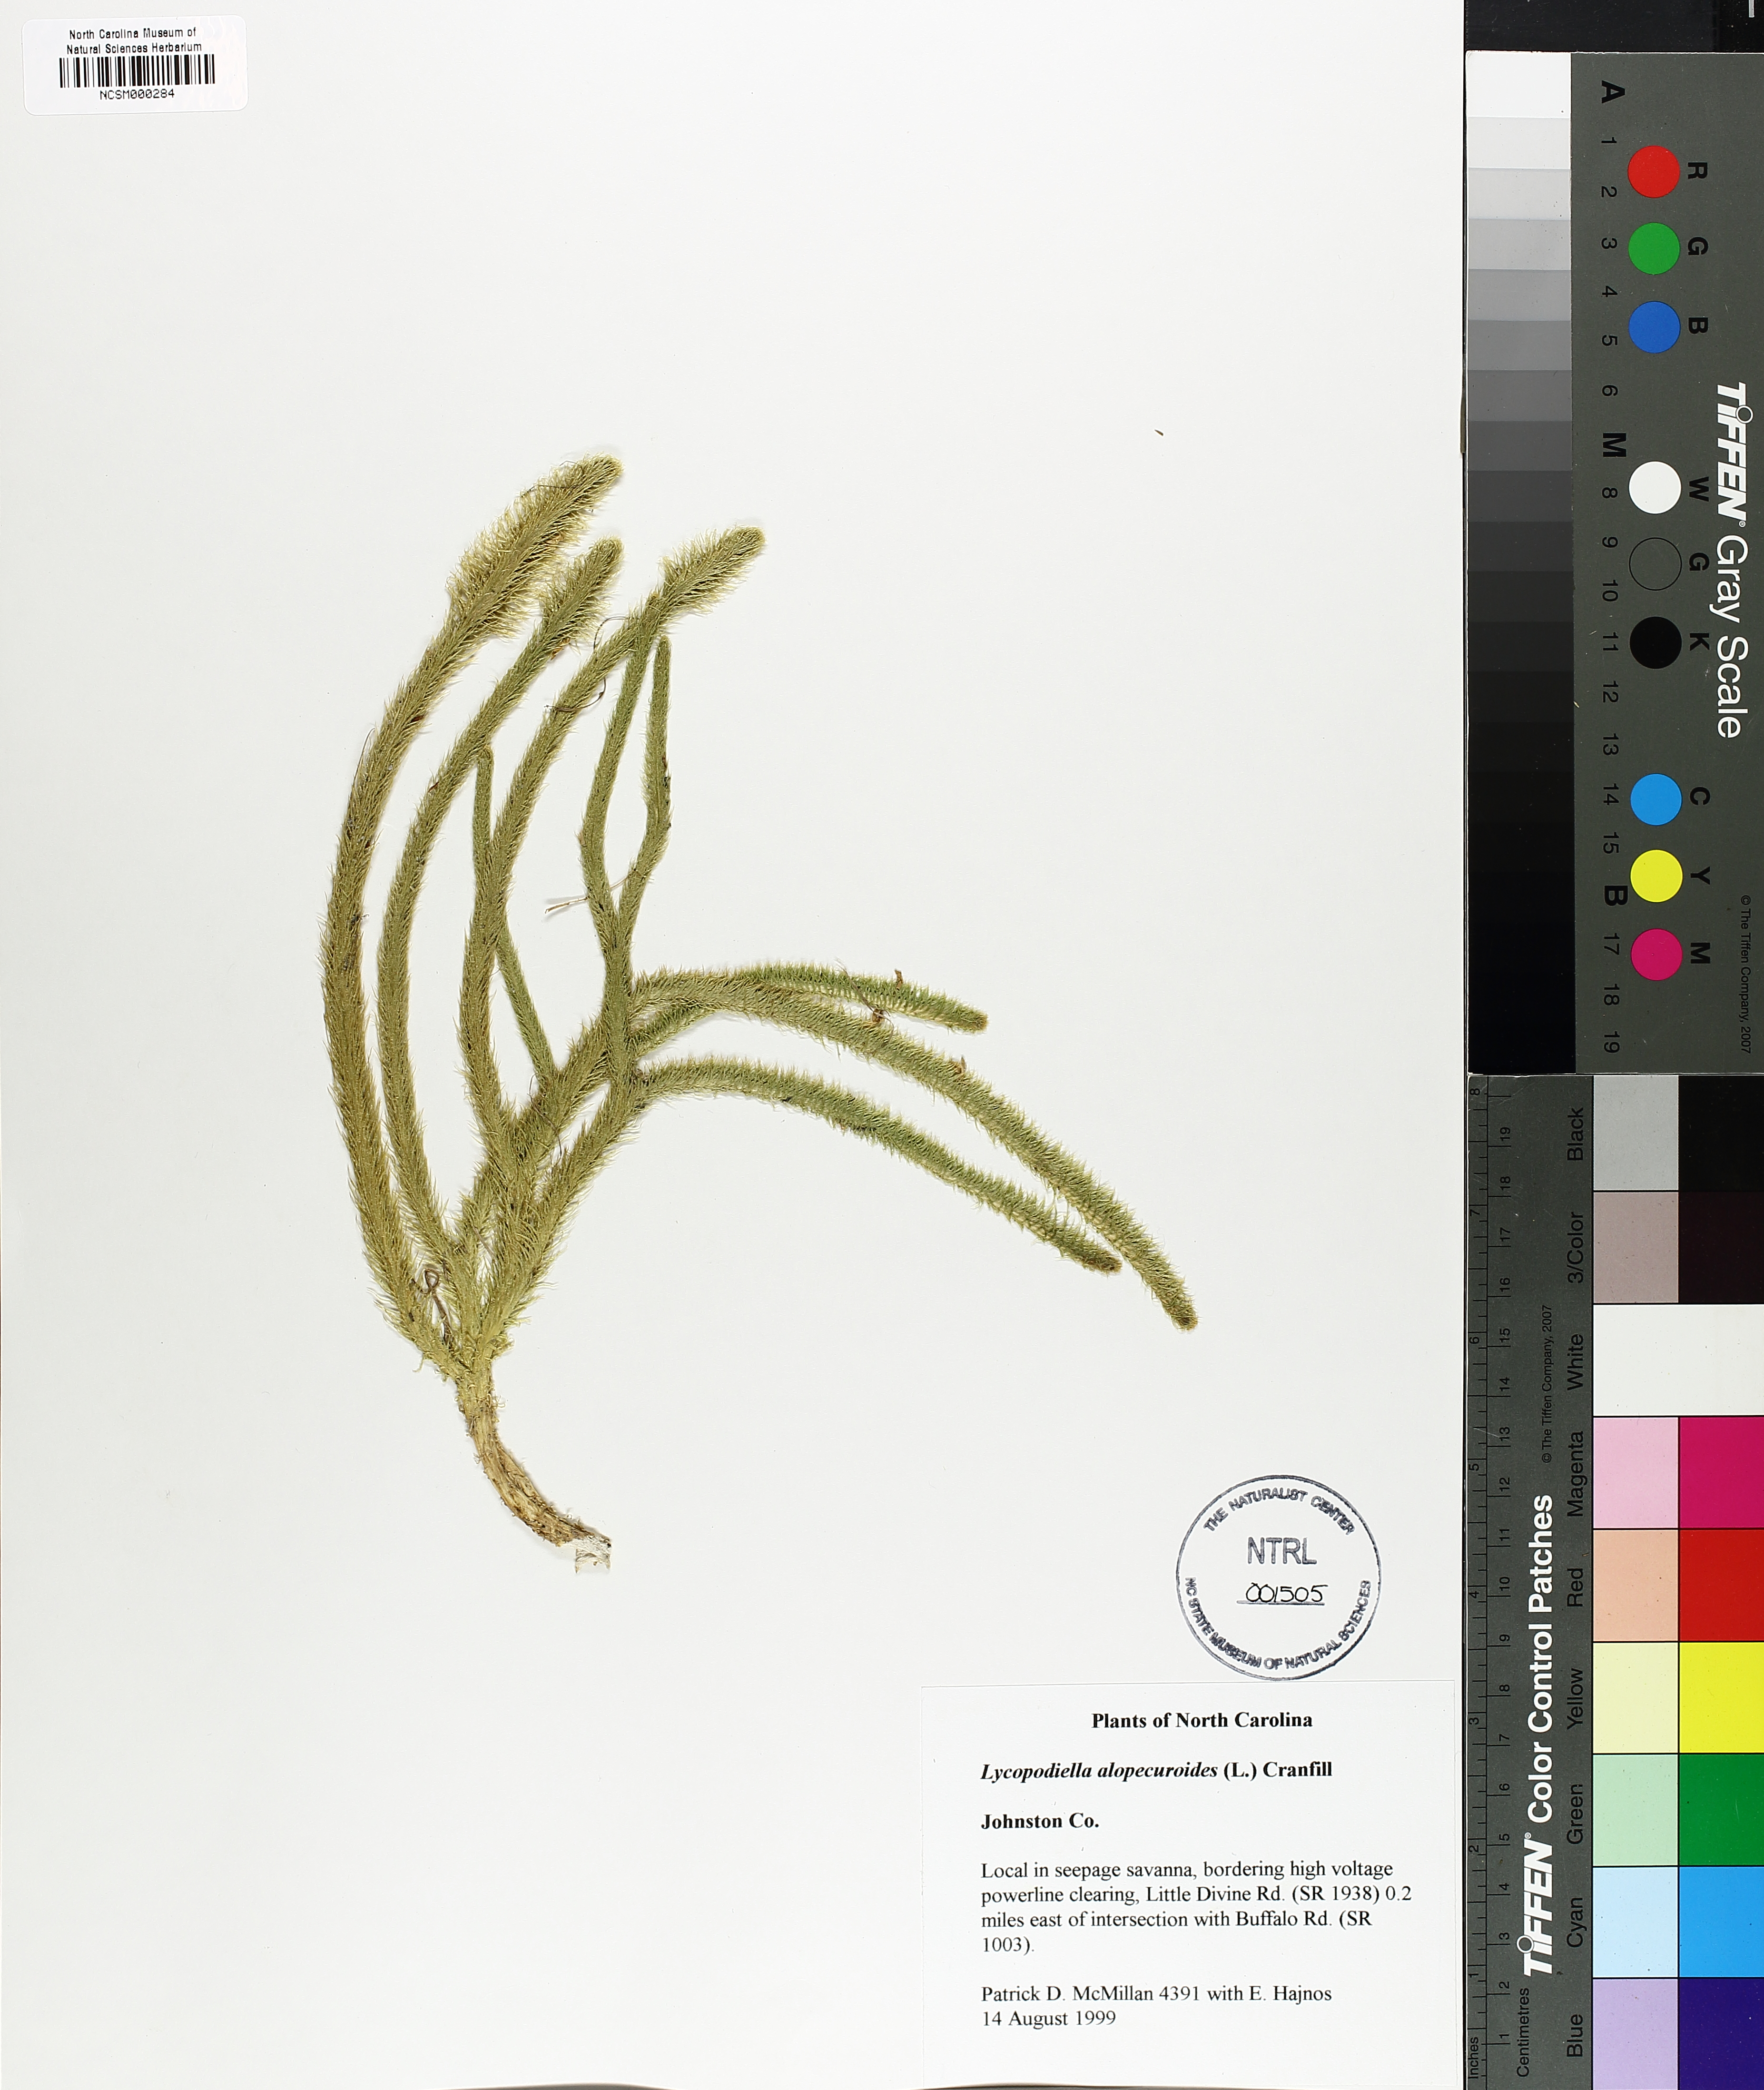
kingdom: Plantae
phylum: Tracheophyta
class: Lycopodiopsida
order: Lycopodiales
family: Lycopodiaceae
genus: Lycopodiella
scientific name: Lycopodiella alopecuroides
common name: Foxtail clubmoss
